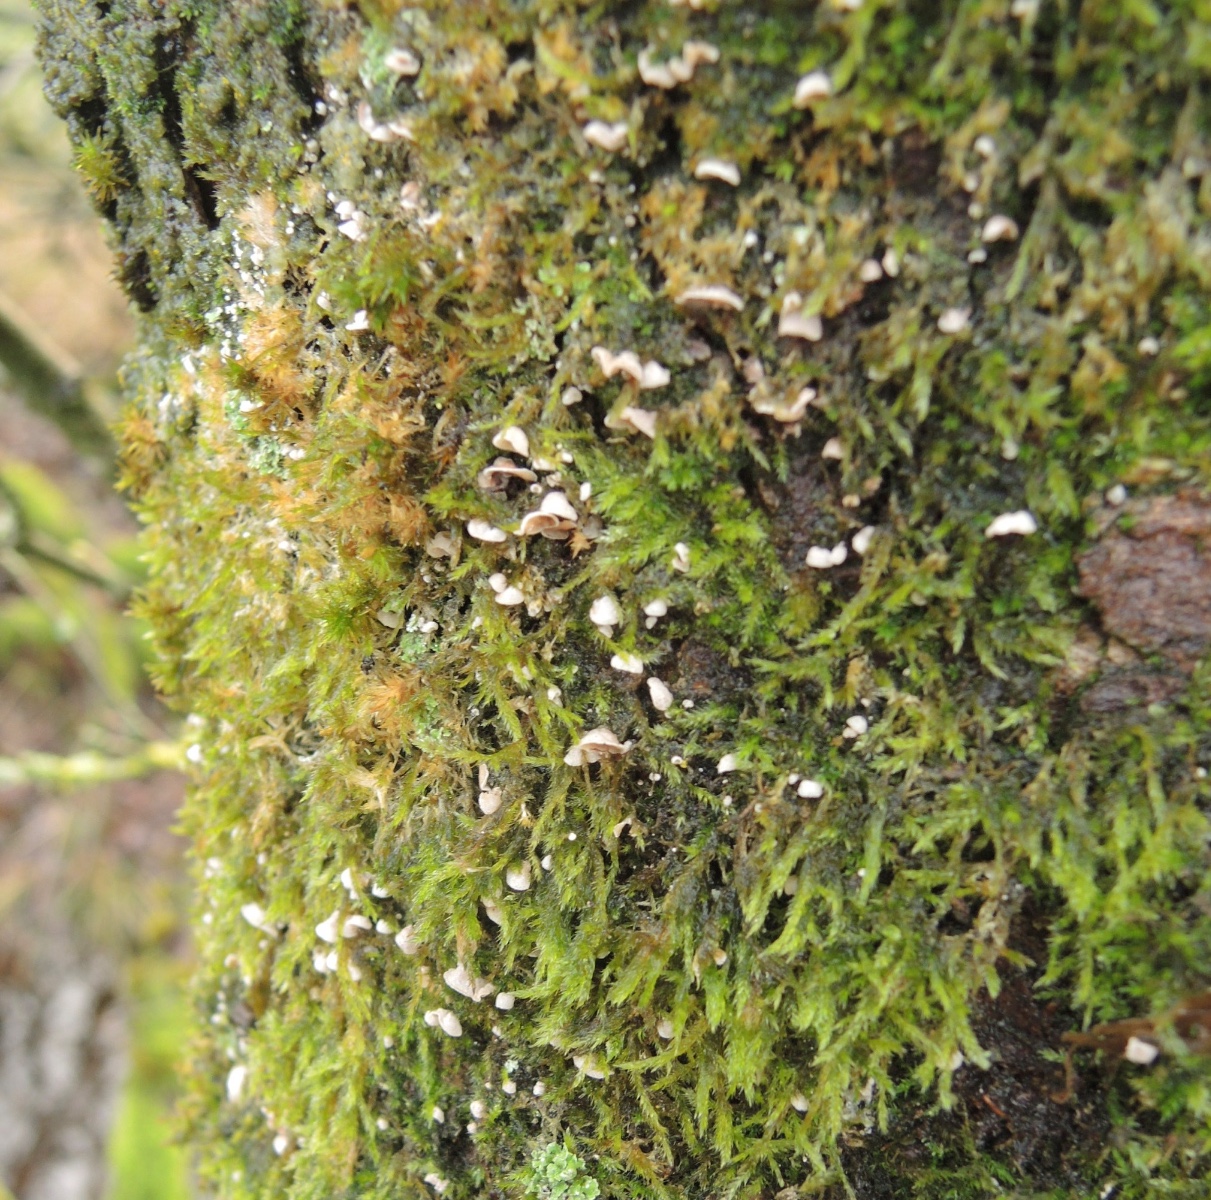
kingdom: Fungi
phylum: Basidiomycota
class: Agaricomycetes
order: Agaricales
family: Chromocyphellaceae
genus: Chromocyphella
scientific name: Chromocyphella muscicola
